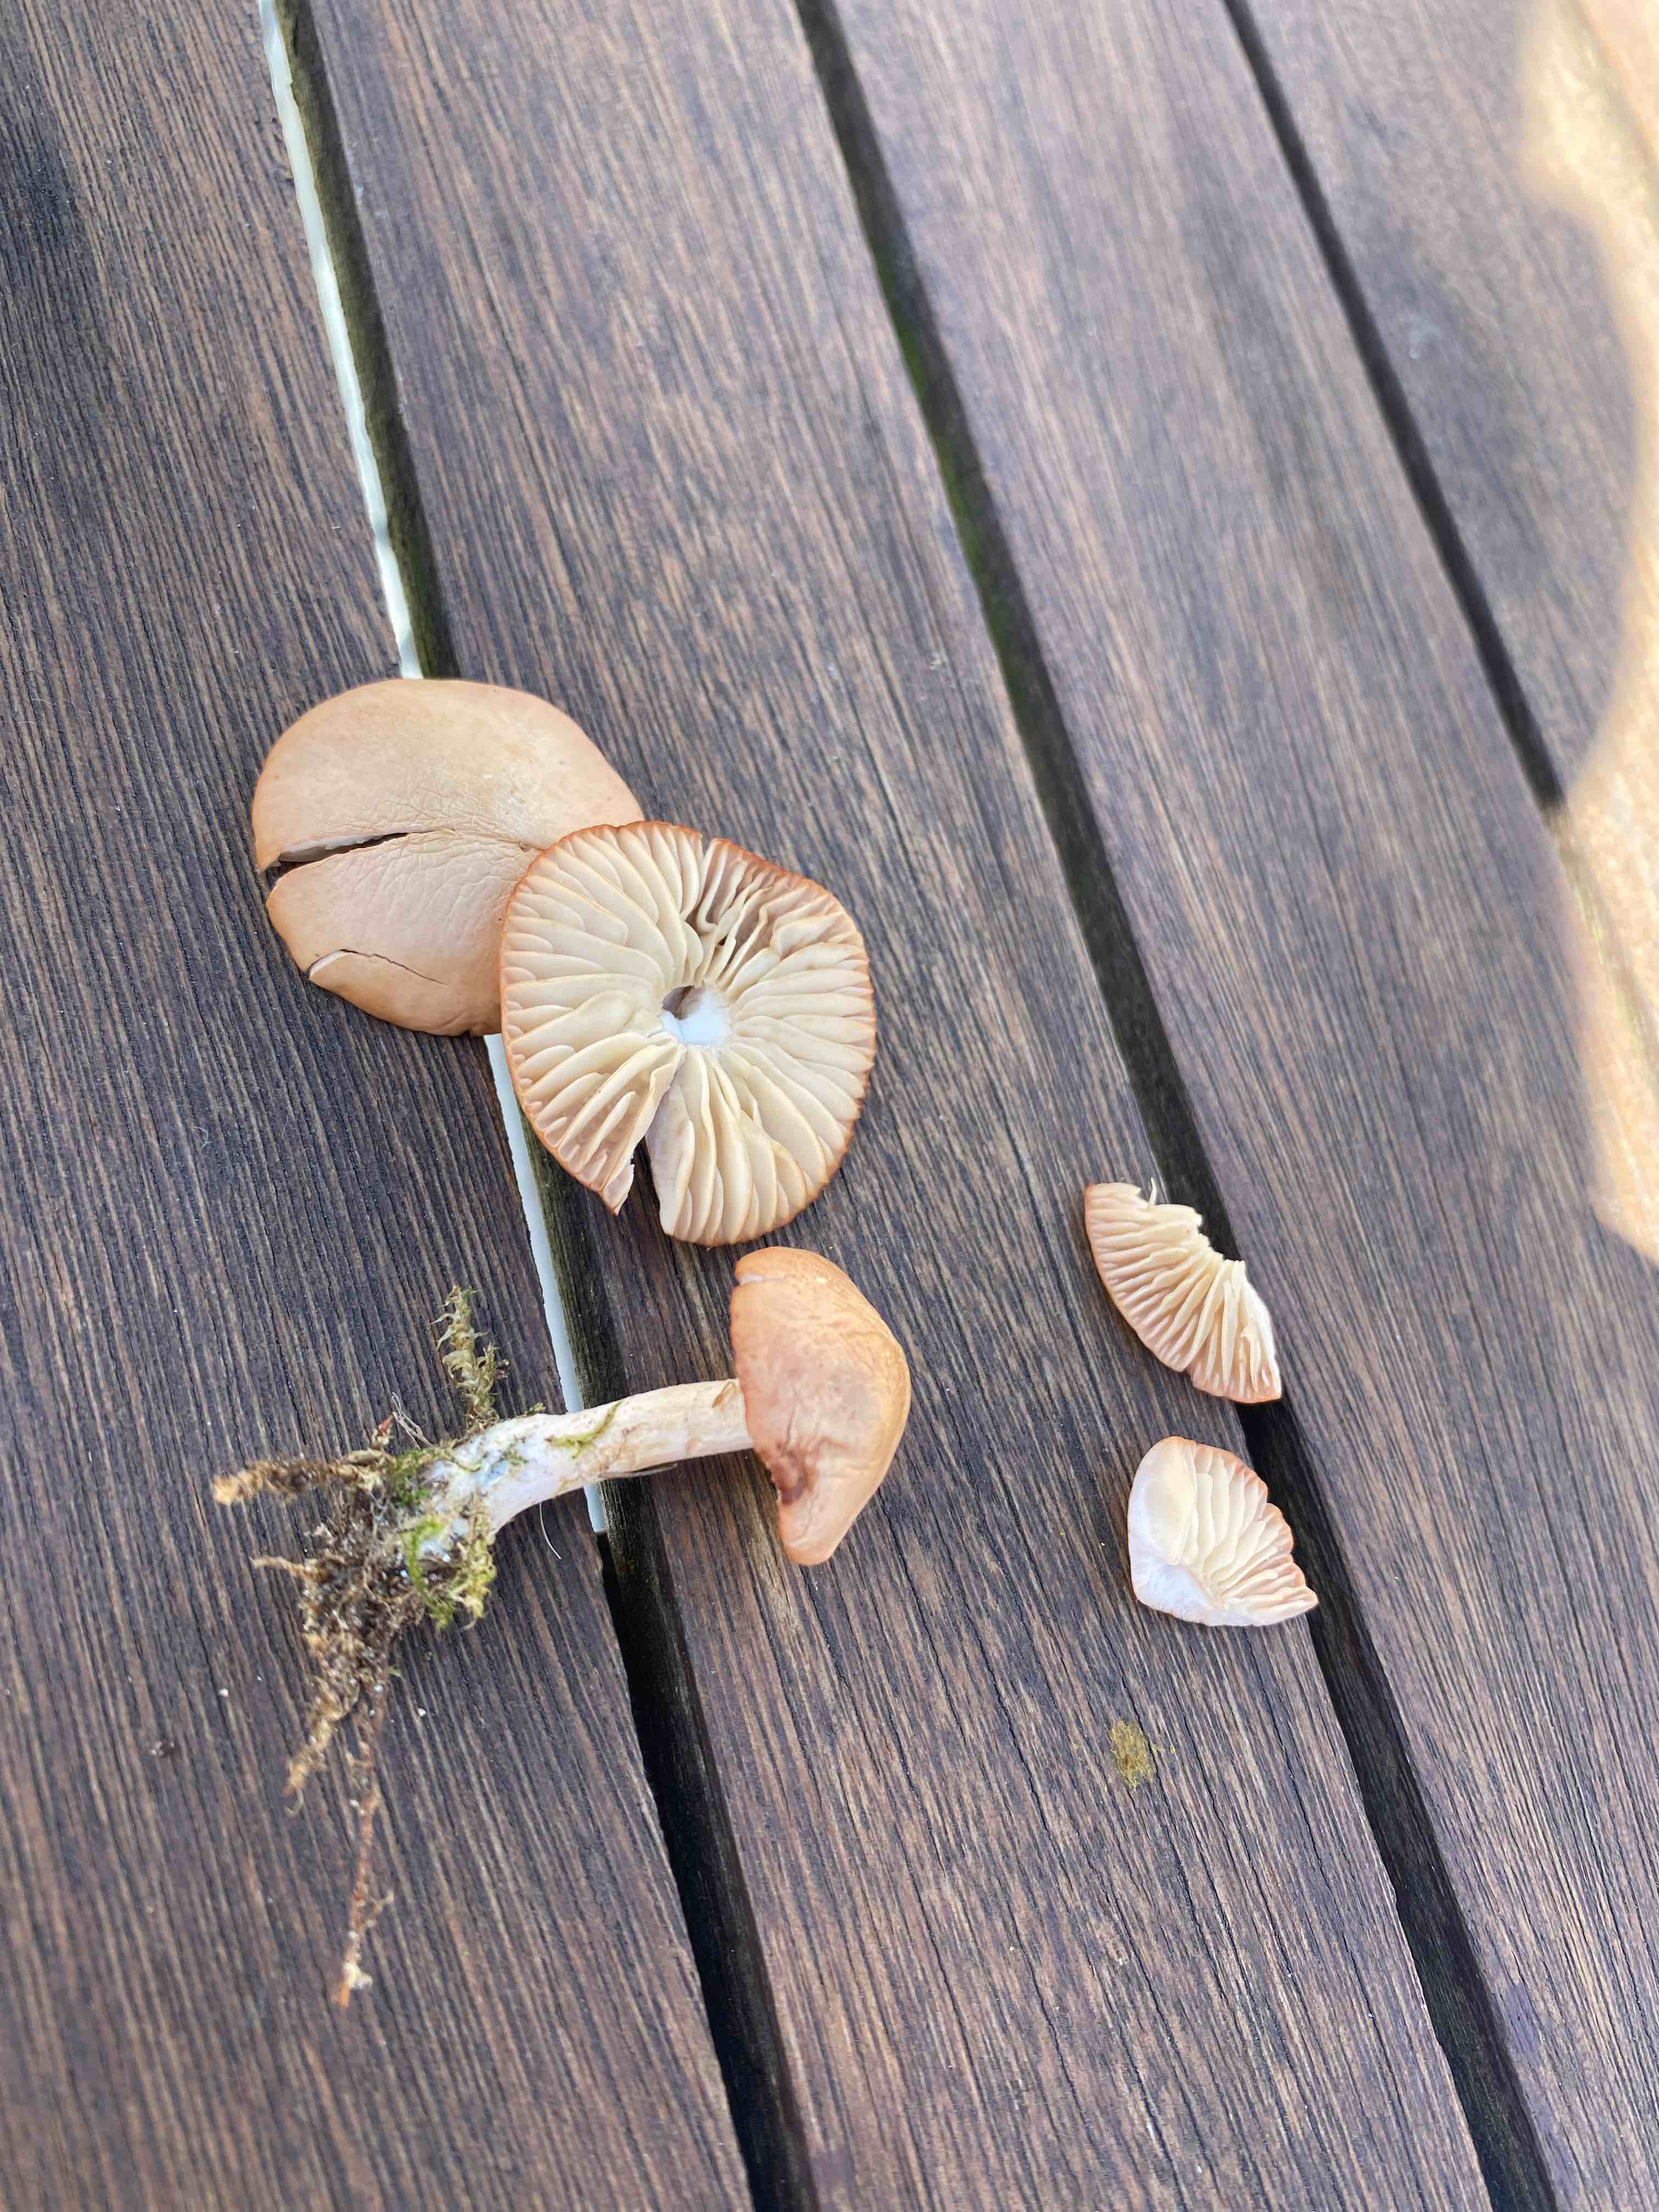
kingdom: Fungi
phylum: Basidiomycota
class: Agaricomycetes
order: Agaricales
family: Marasmiaceae
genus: Marasmius
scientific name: Marasmius oreades
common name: elledans-bruskhat
